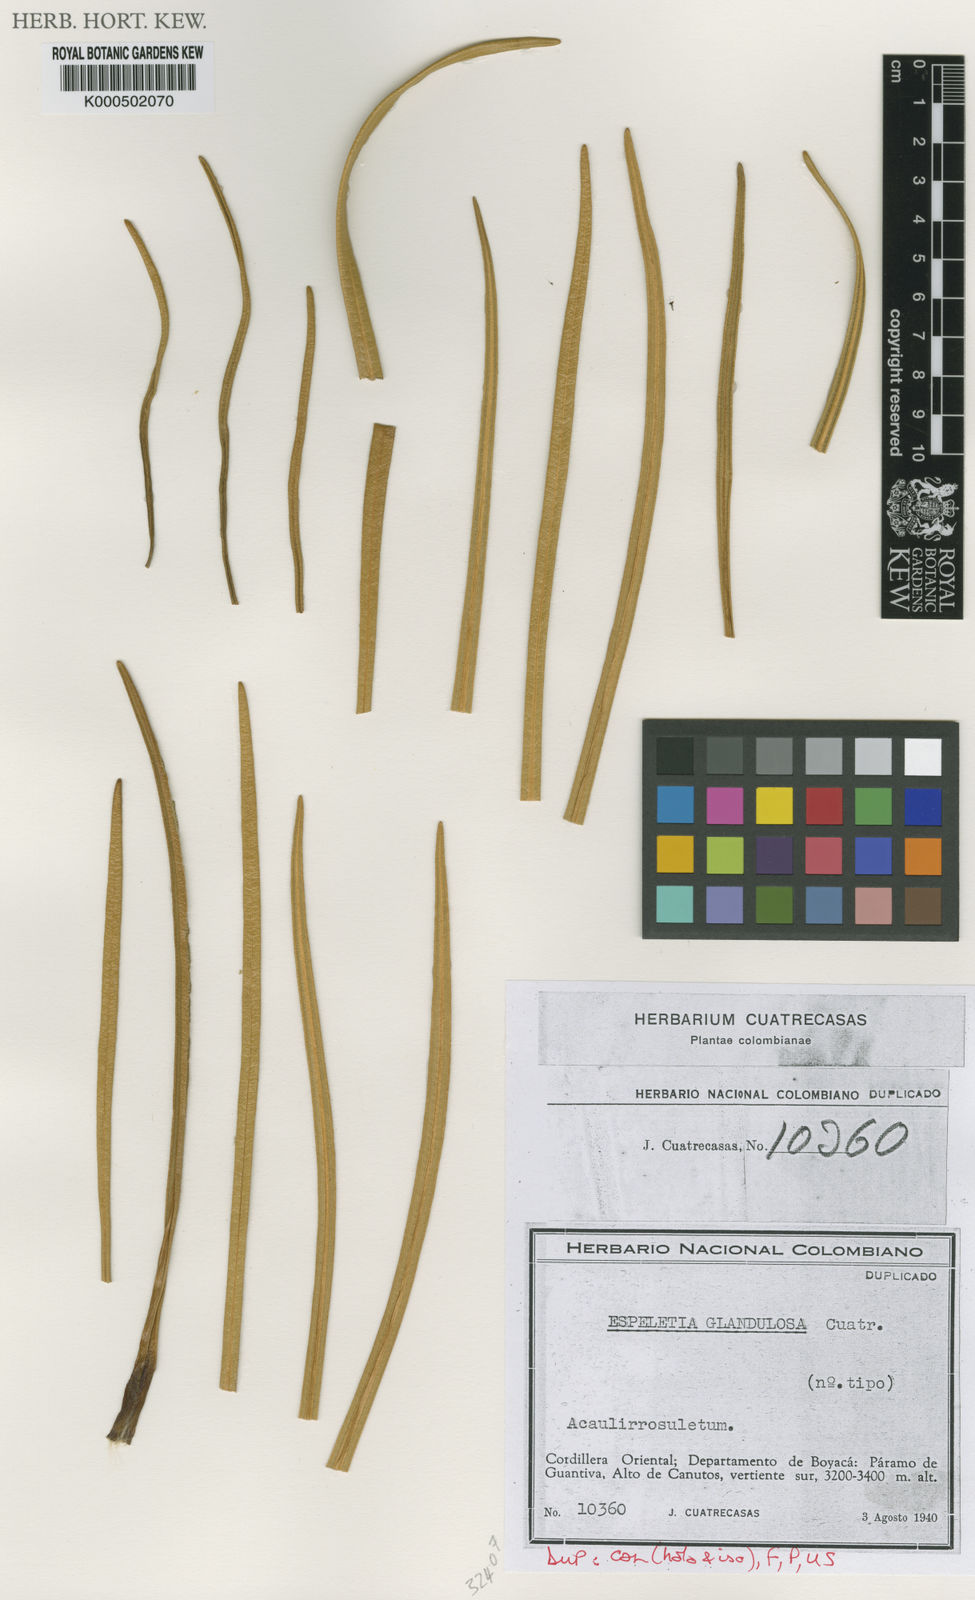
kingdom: Plantae
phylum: Tracheophyta
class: Magnoliopsida
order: Asterales
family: Asteraceae
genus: Espeletia
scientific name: Espeletia glandulosa
